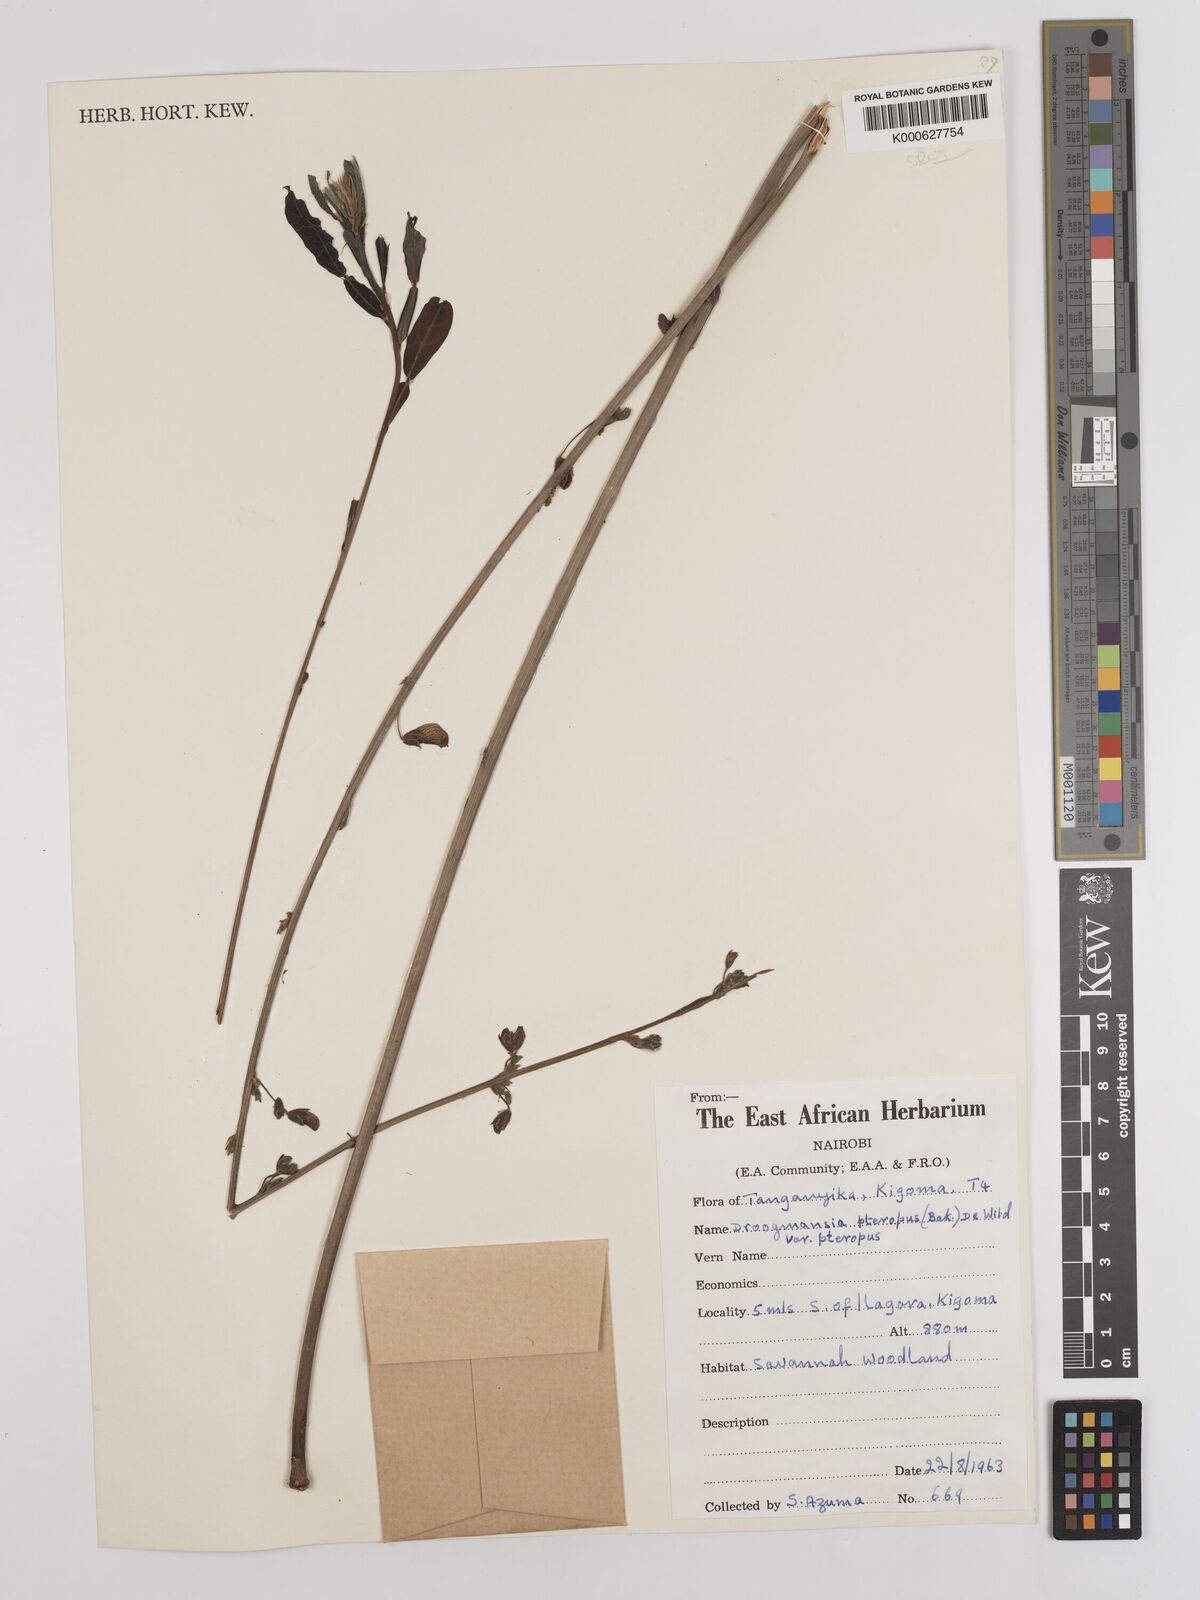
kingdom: Plantae
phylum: Tracheophyta
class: Magnoliopsida
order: Fabales
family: Fabaceae
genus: Droogmansia
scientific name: Droogmansia
